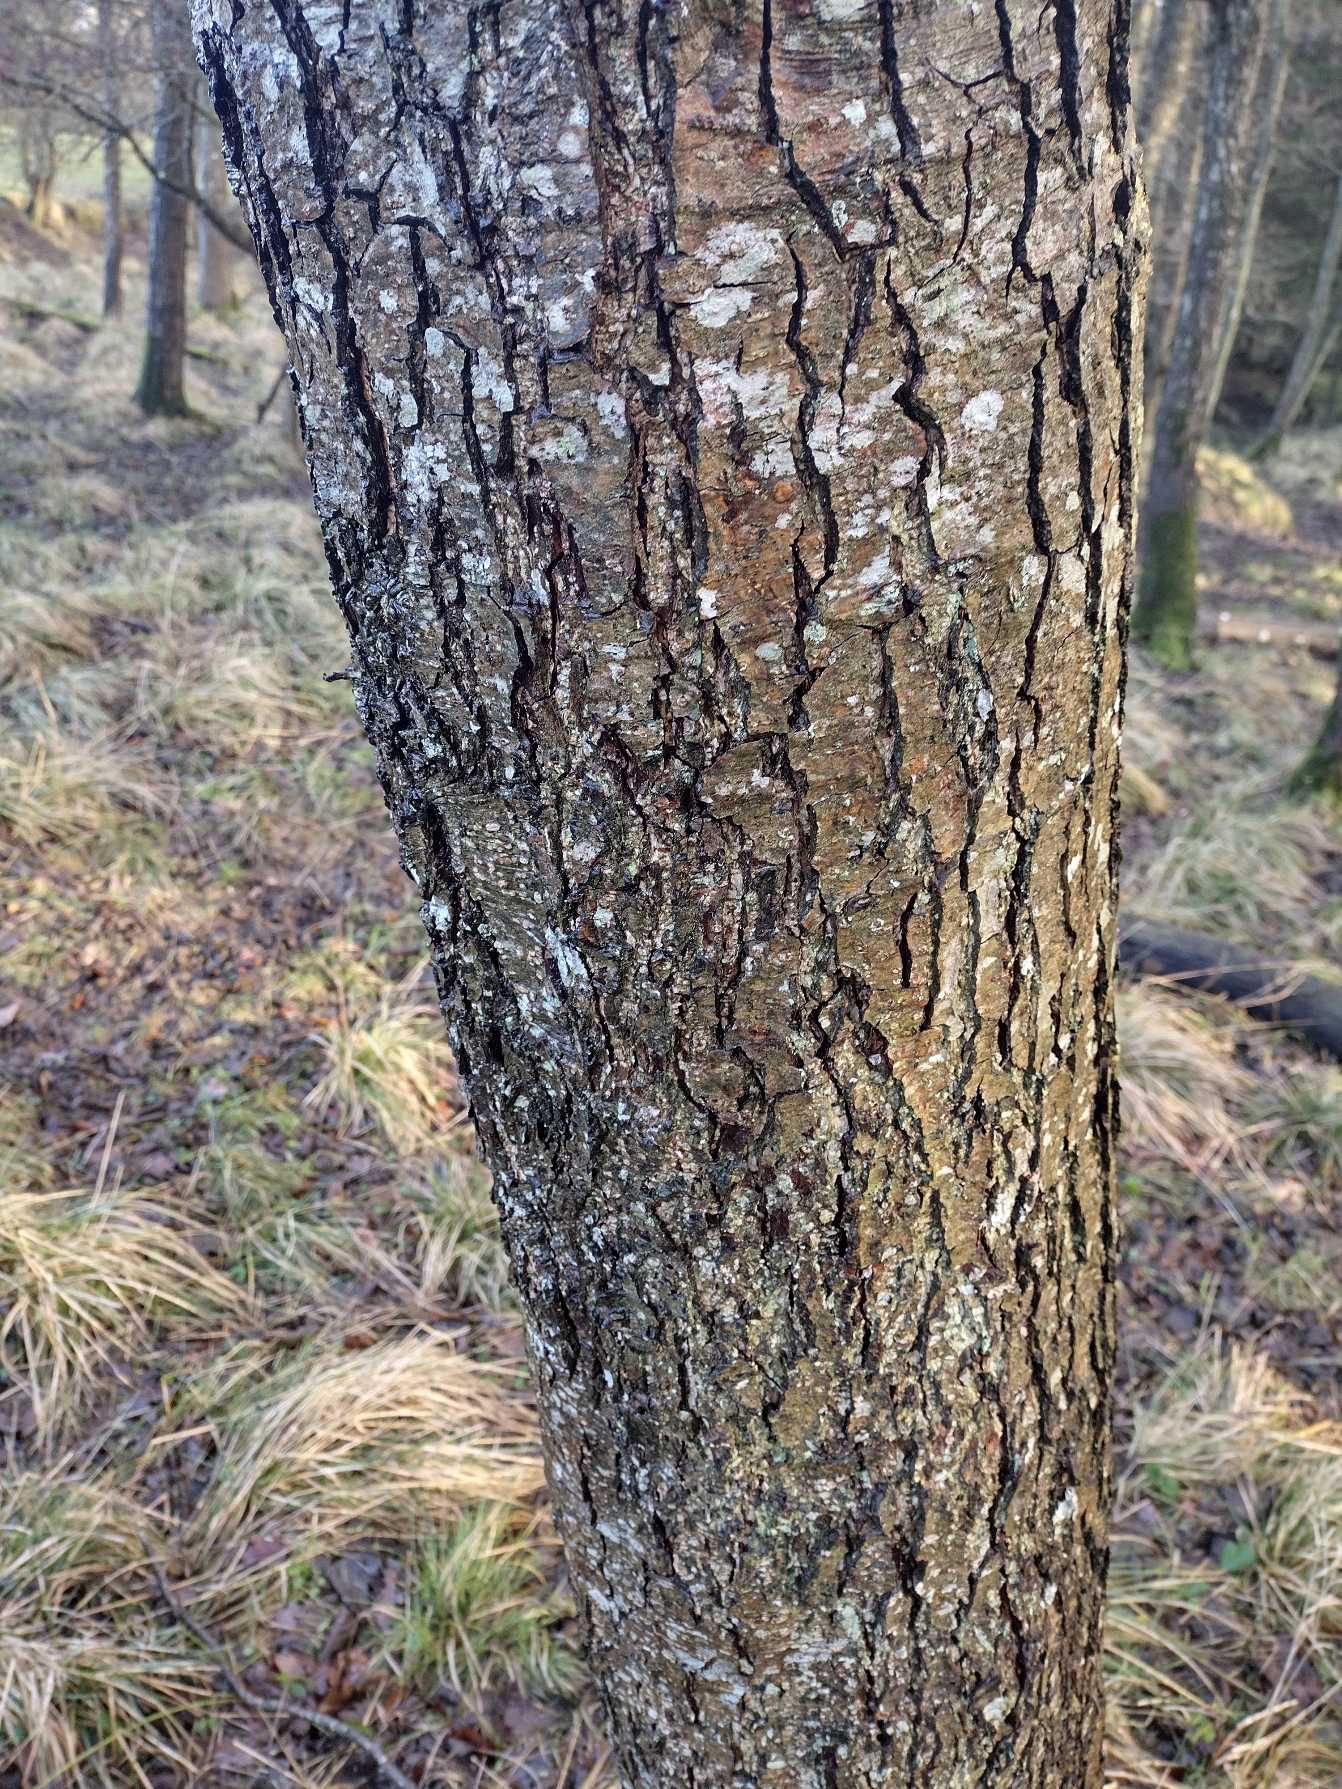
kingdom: Plantae
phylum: Tracheophyta
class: Magnoliopsida
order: Fagales
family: Betulaceae
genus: Alnus
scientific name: Alnus glutinosa
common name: Rød-el
